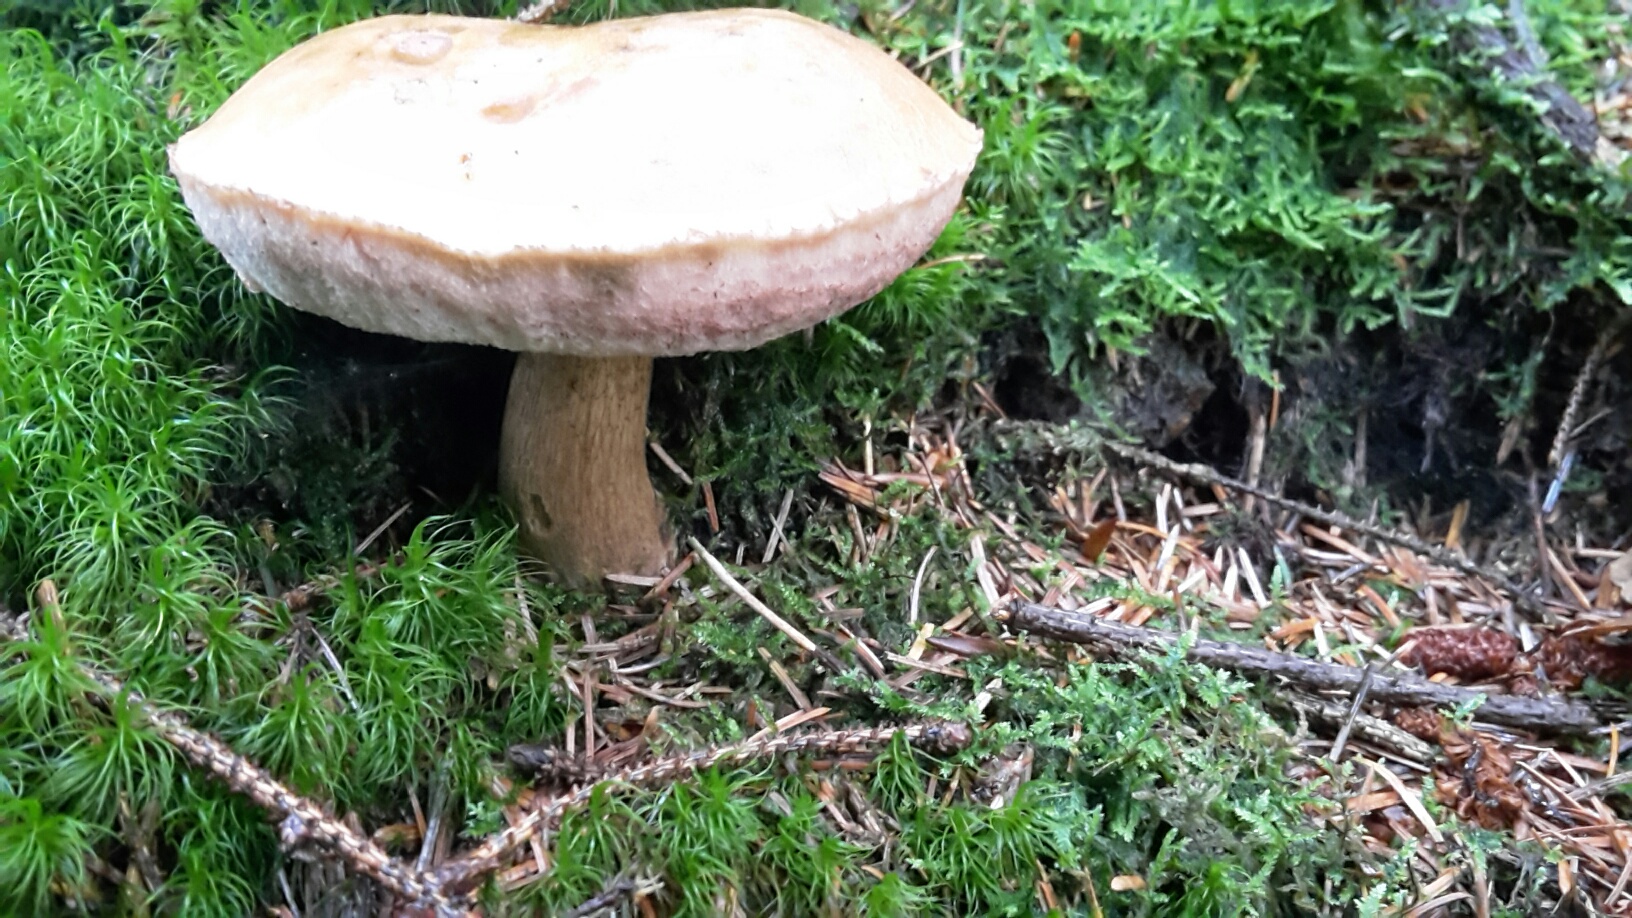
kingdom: Fungi
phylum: Basidiomycota
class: Agaricomycetes
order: Boletales
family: Boletaceae
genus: Tylopilus
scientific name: Tylopilus felleus
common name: galderørhat
